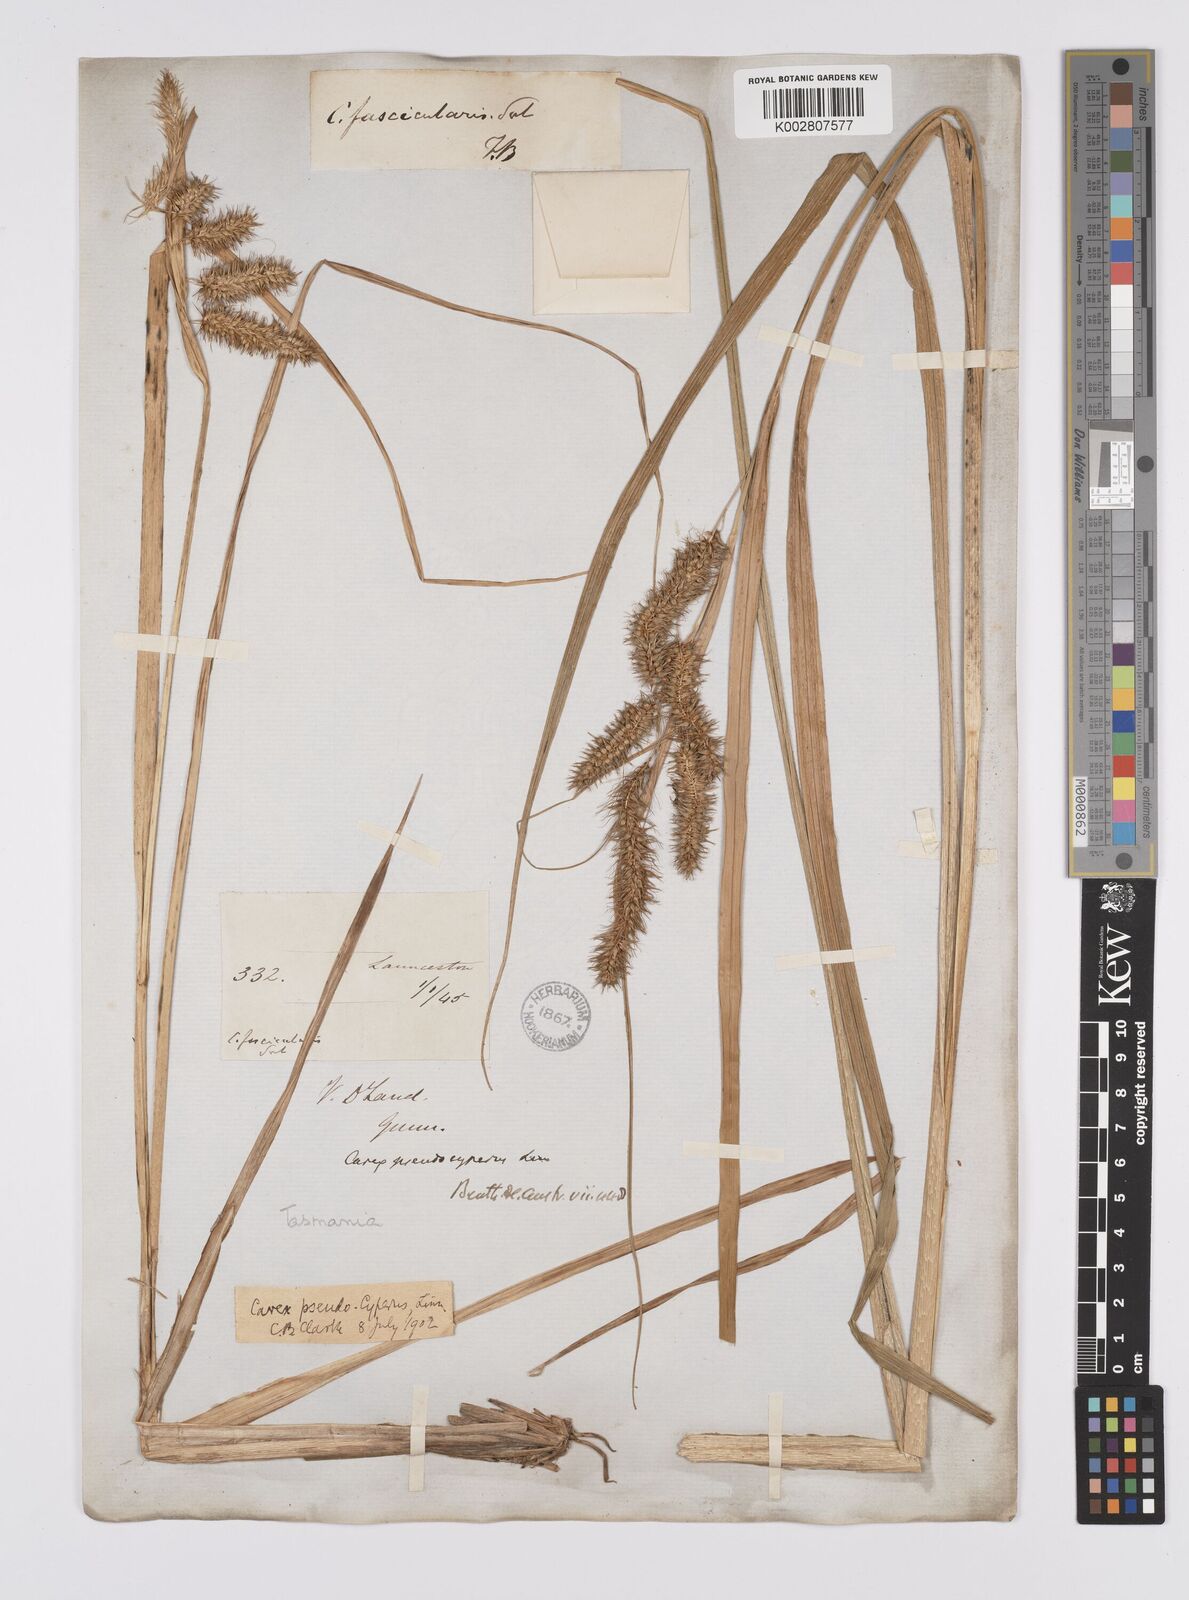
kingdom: Plantae
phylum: Tracheophyta
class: Liliopsida
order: Poales
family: Cyperaceae
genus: Carex
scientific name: Carex fascicularis
